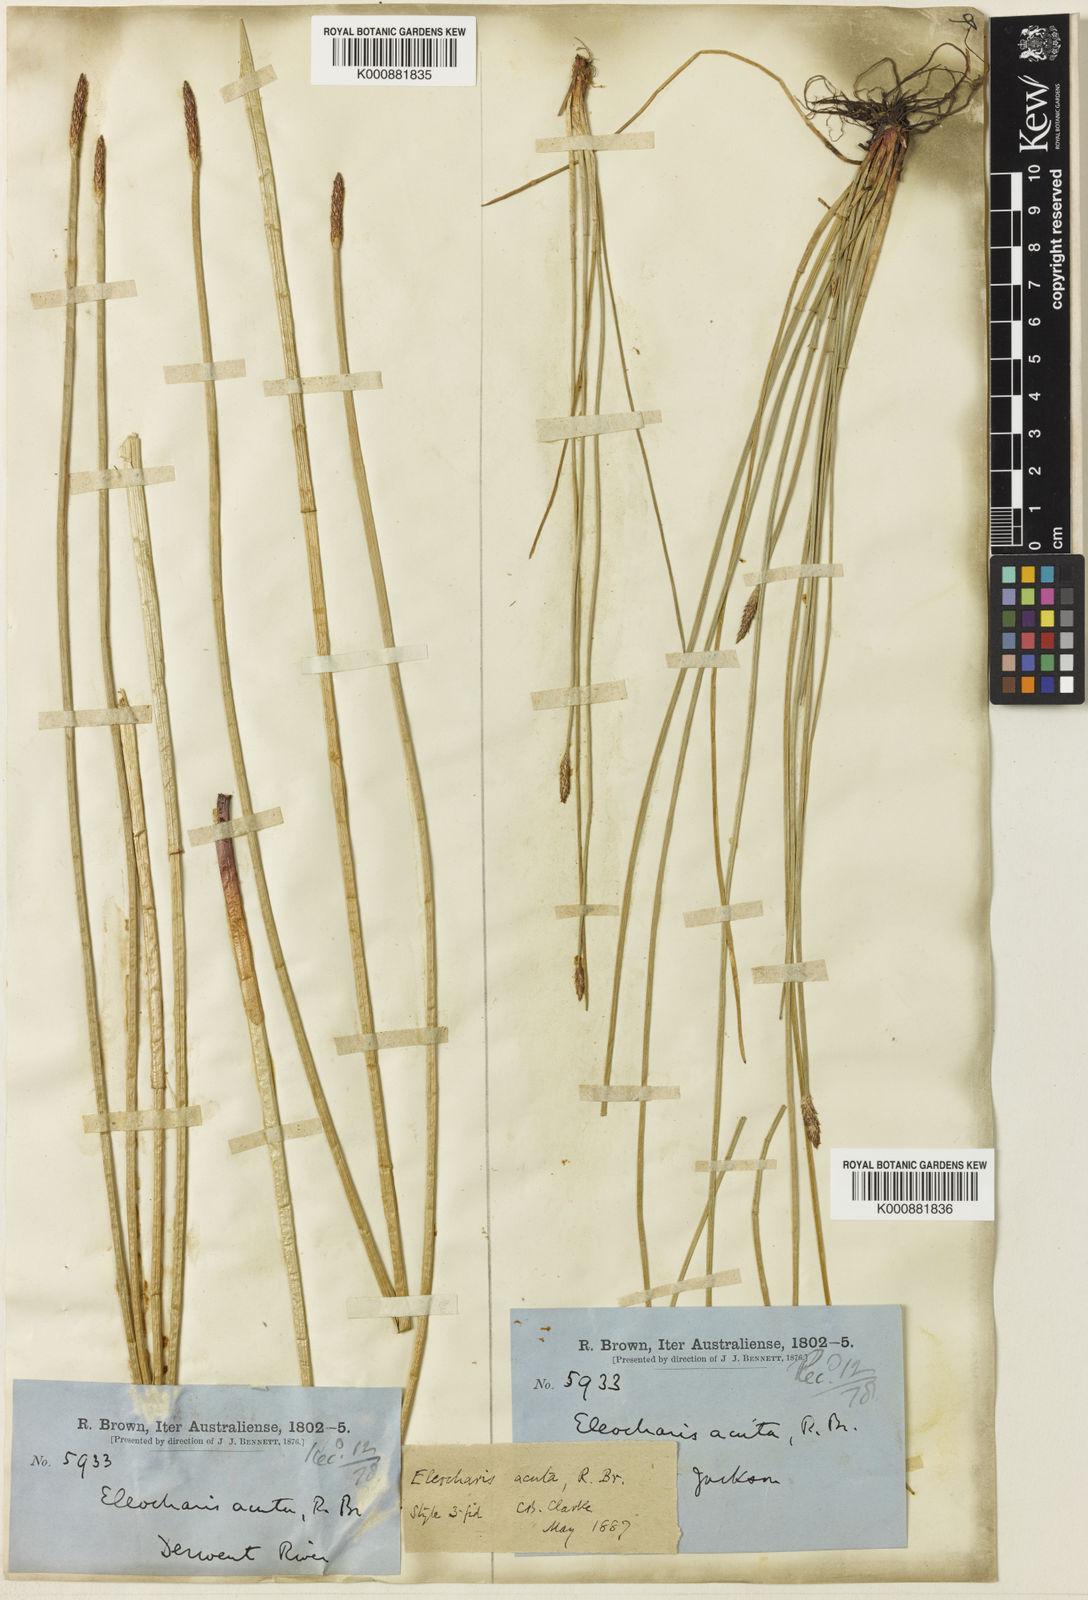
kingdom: Plantae
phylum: Tracheophyta
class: Liliopsida
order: Poales
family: Cyperaceae
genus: Eleocharis
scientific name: Eleocharis acuta
